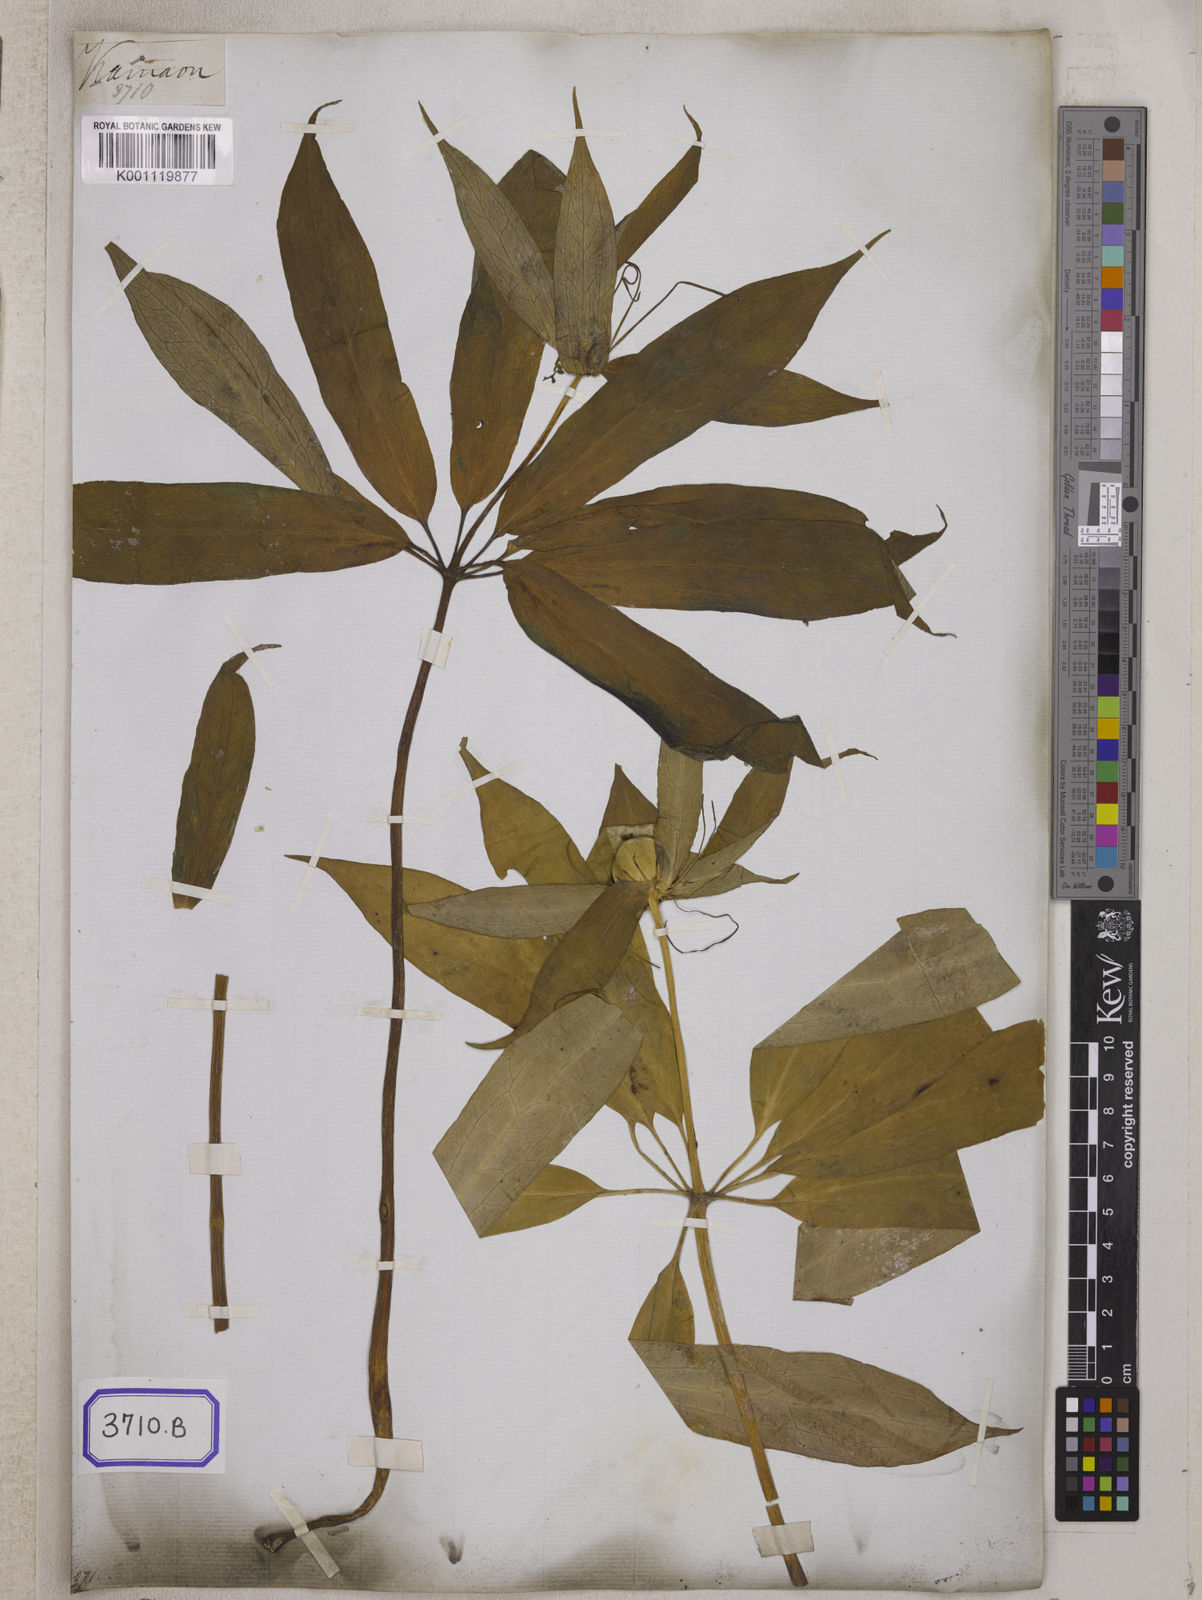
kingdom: Plantae
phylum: Tracheophyta
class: Liliopsida
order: Liliales
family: Melanthiaceae
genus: Paris
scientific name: Paris polyphylla
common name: Love apple
